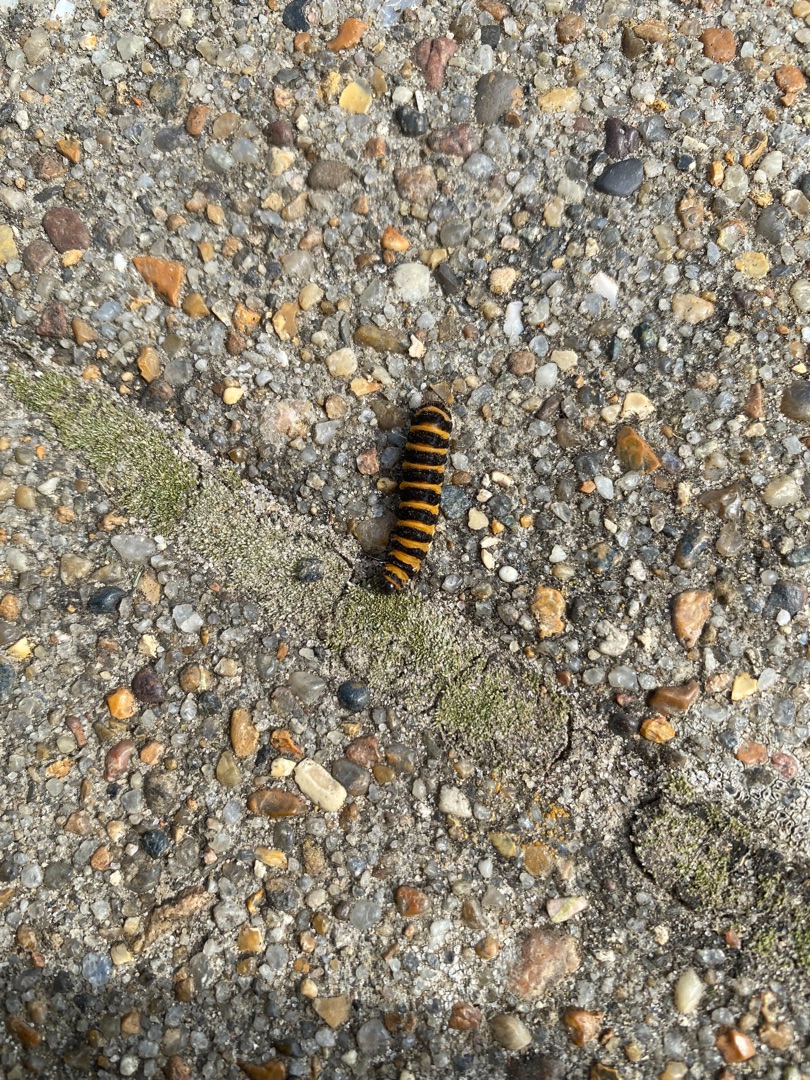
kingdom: Animalia
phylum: Arthropoda
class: Insecta
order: Lepidoptera
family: Erebidae
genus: Tyria
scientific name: Tyria jacobaeae
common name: Blodplet
